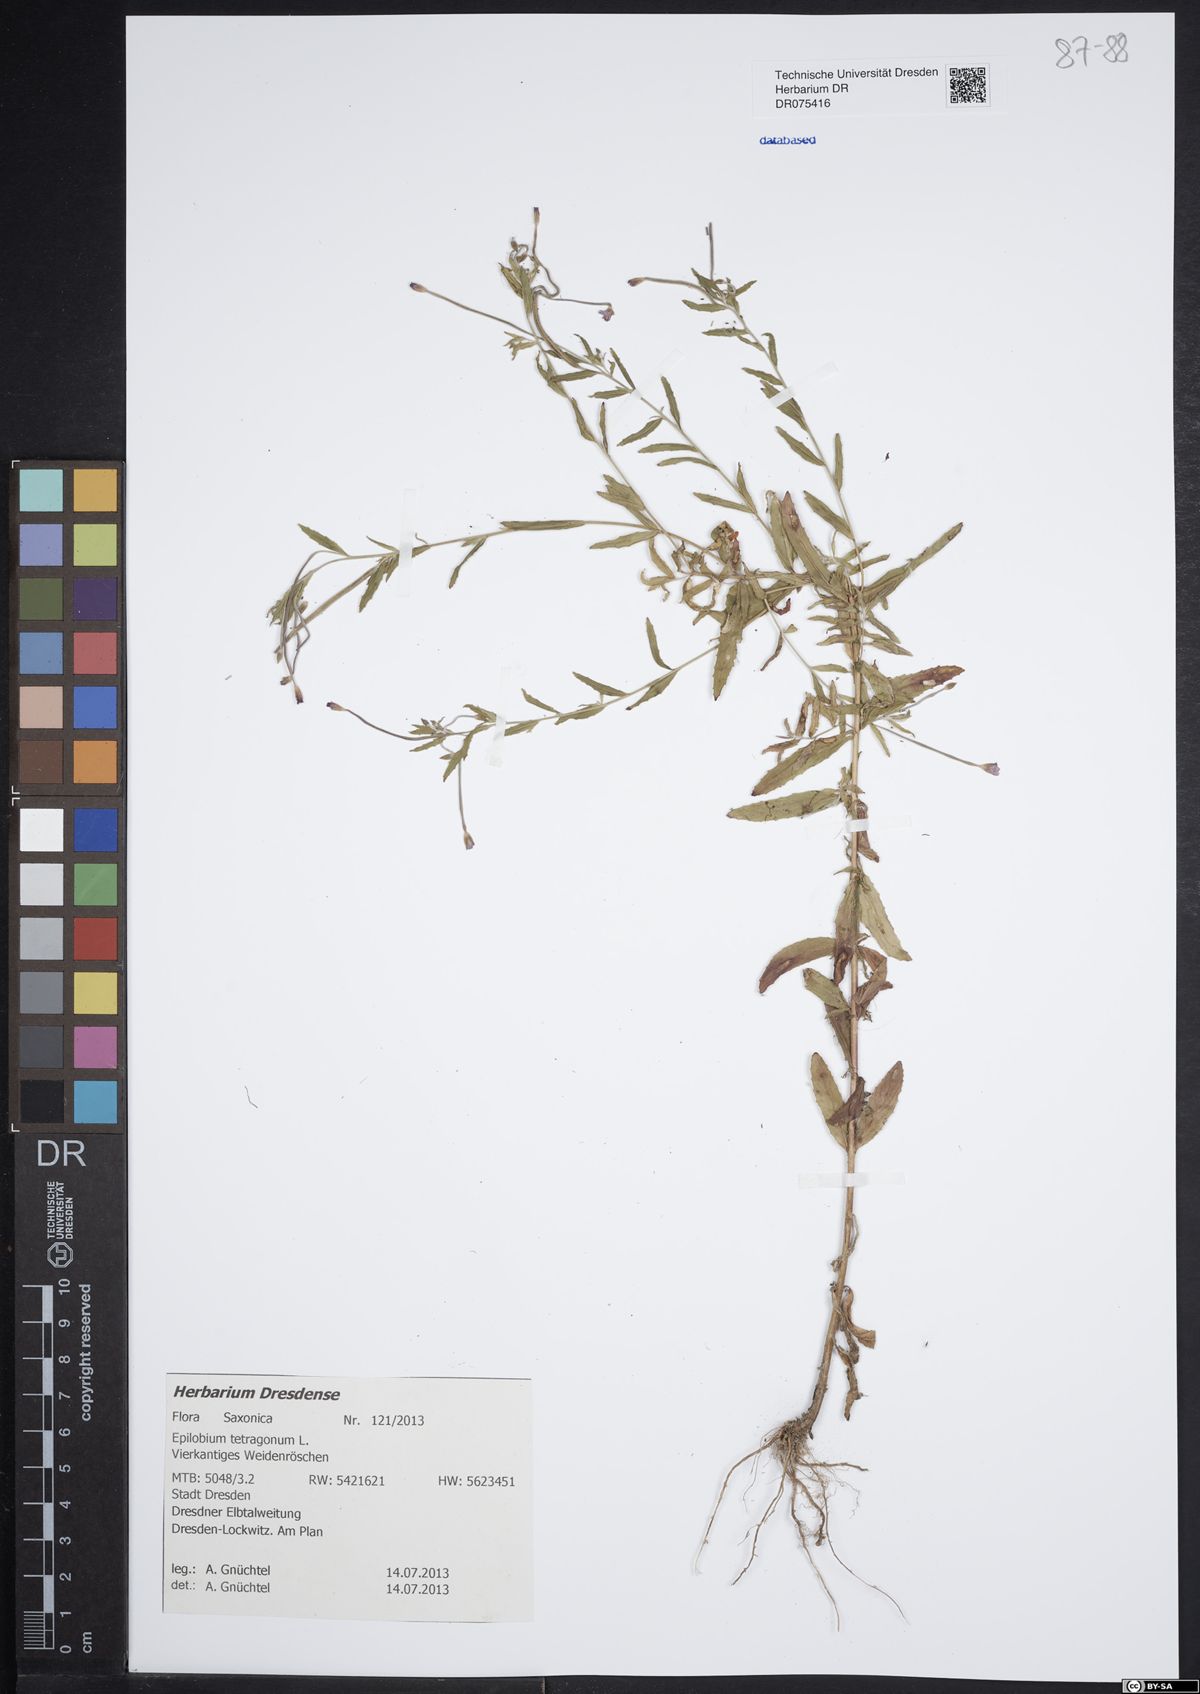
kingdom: Plantae
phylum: Tracheophyta
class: Magnoliopsida
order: Myrtales
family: Onagraceae
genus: Epilobium
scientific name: Epilobium tetragonum
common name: Square-stemmed willowherb
